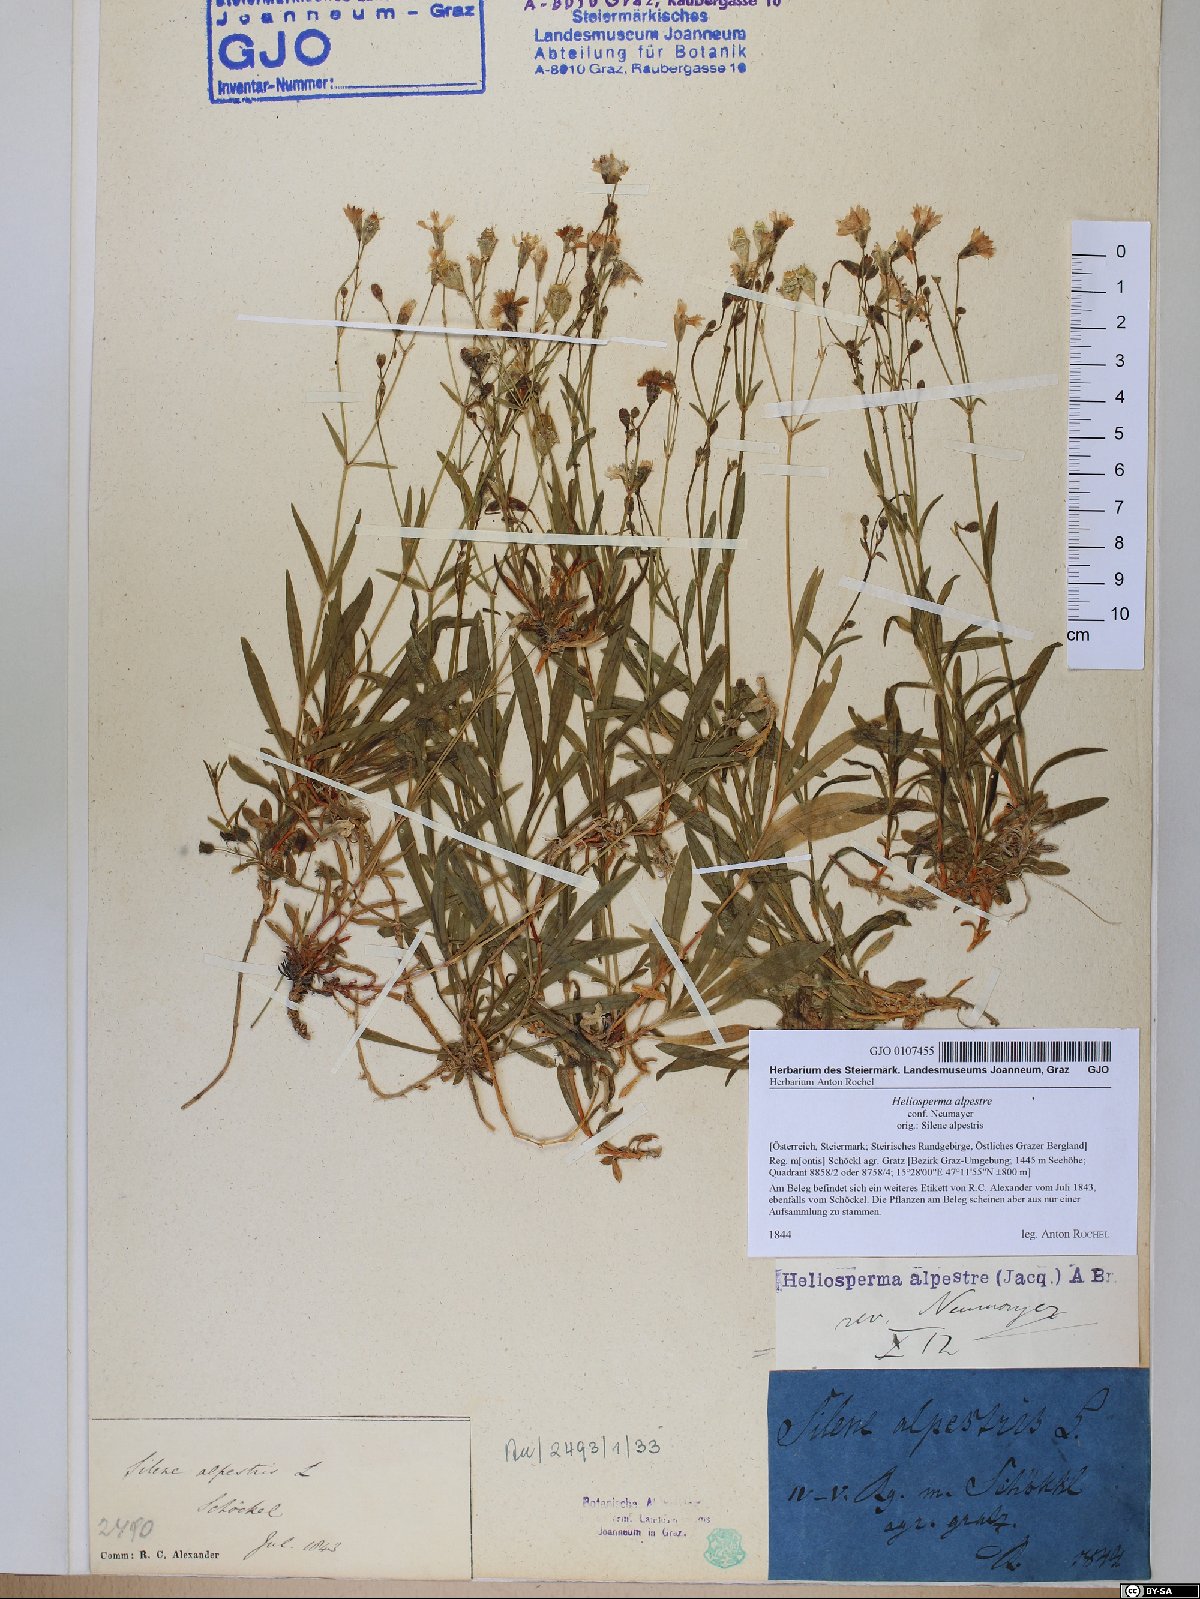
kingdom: Plantae
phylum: Tracheophyta
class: Magnoliopsida
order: Caryophyllales
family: Caryophyllaceae
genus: Heliosperma
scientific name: Heliosperma alpestre
